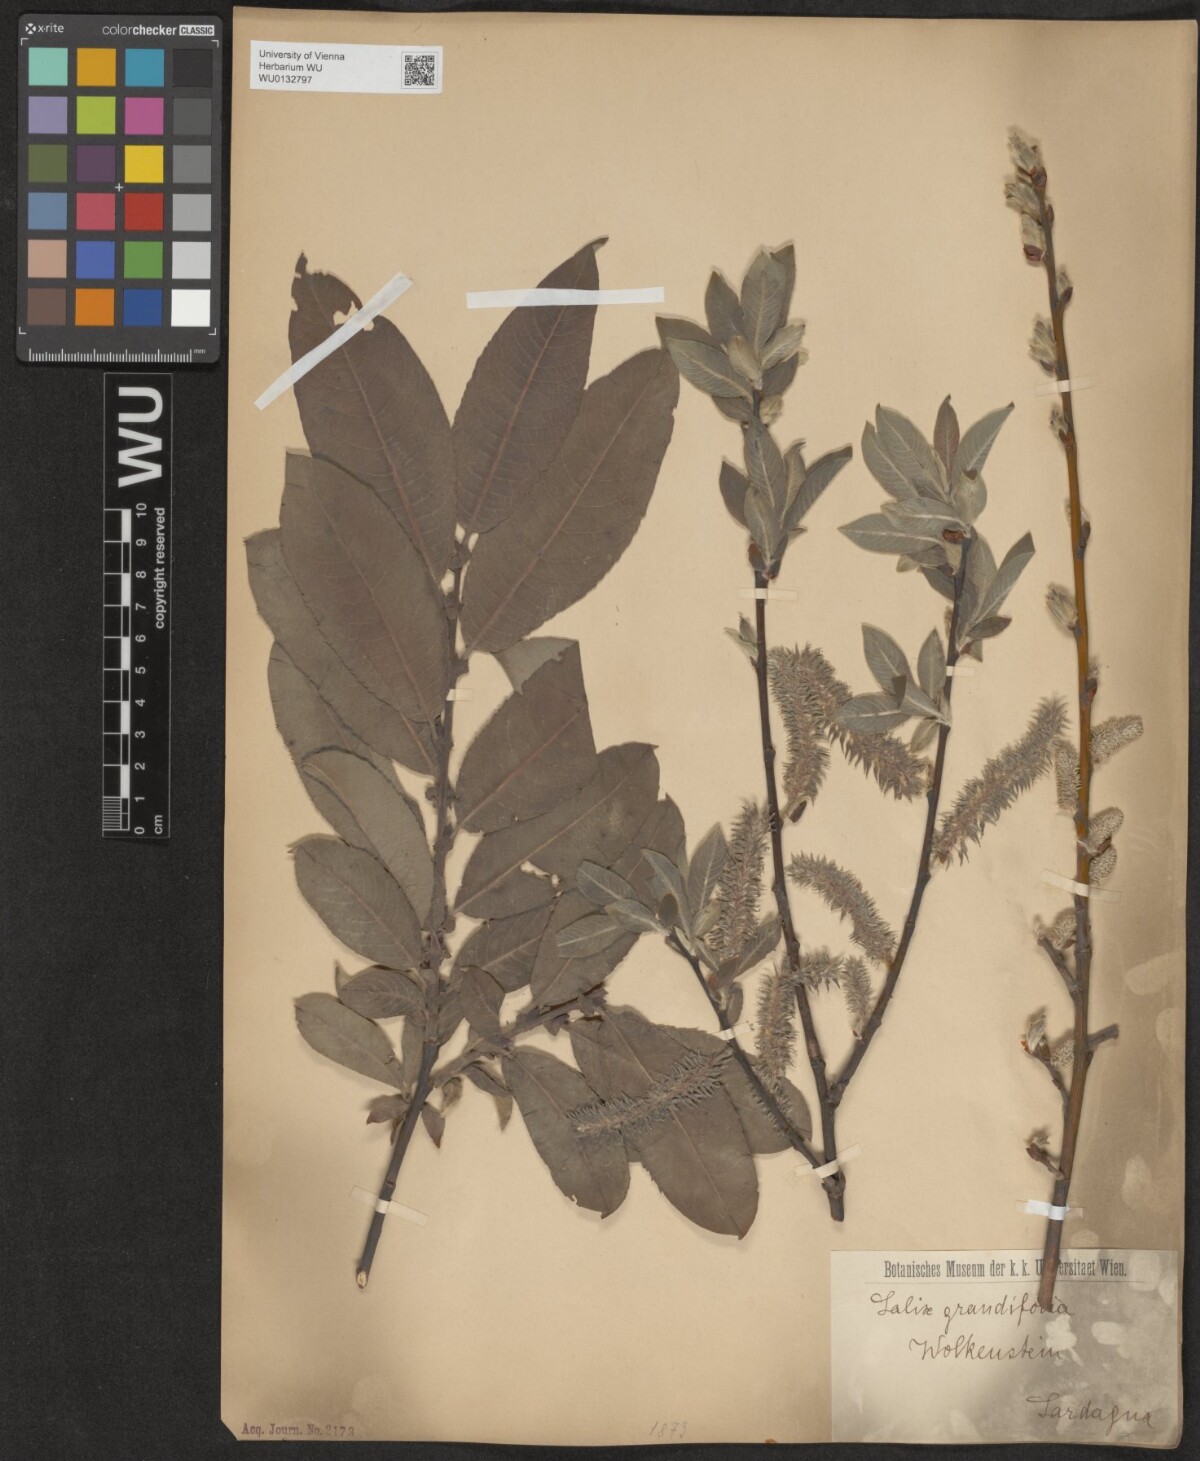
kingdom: Plantae
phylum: Tracheophyta
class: Magnoliopsida
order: Malpighiales
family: Salicaceae
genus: Salix
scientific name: Salix appendiculata
